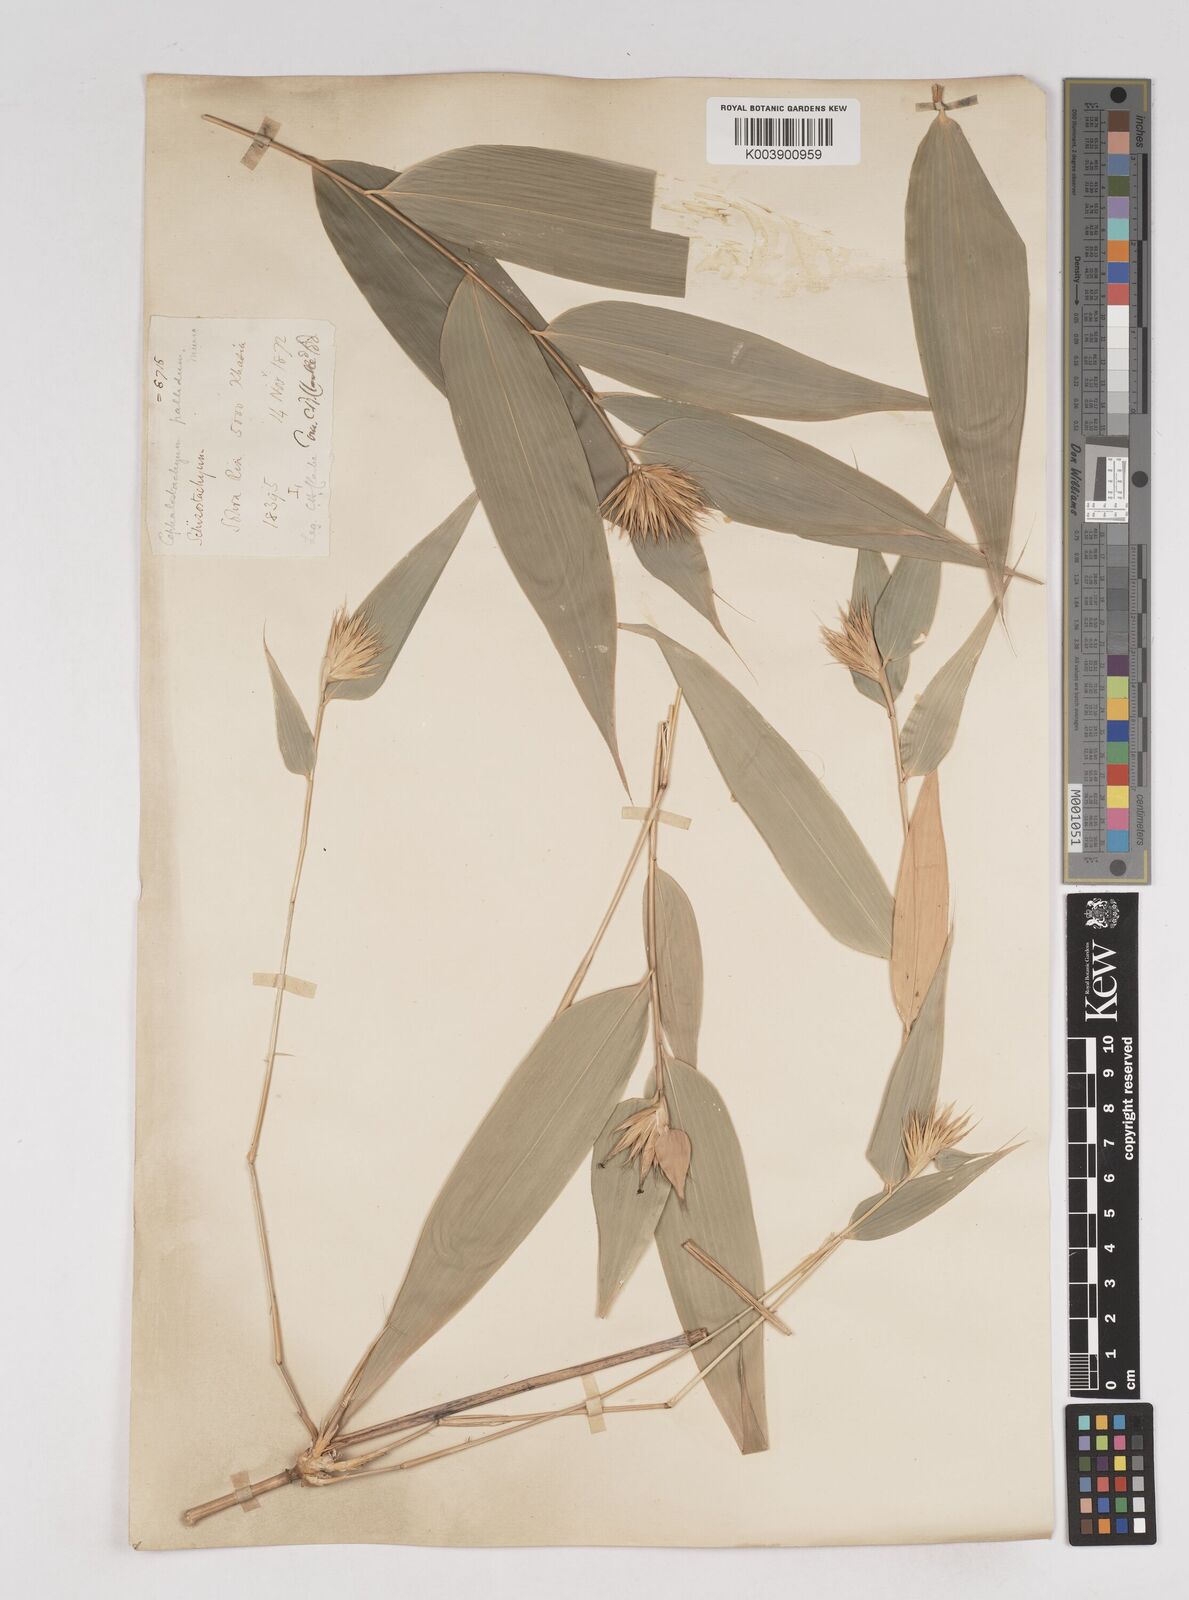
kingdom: Plantae
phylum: Tracheophyta
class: Liliopsida
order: Poales
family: Poaceae
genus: Cephalostachyum
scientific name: Cephalostachyum
